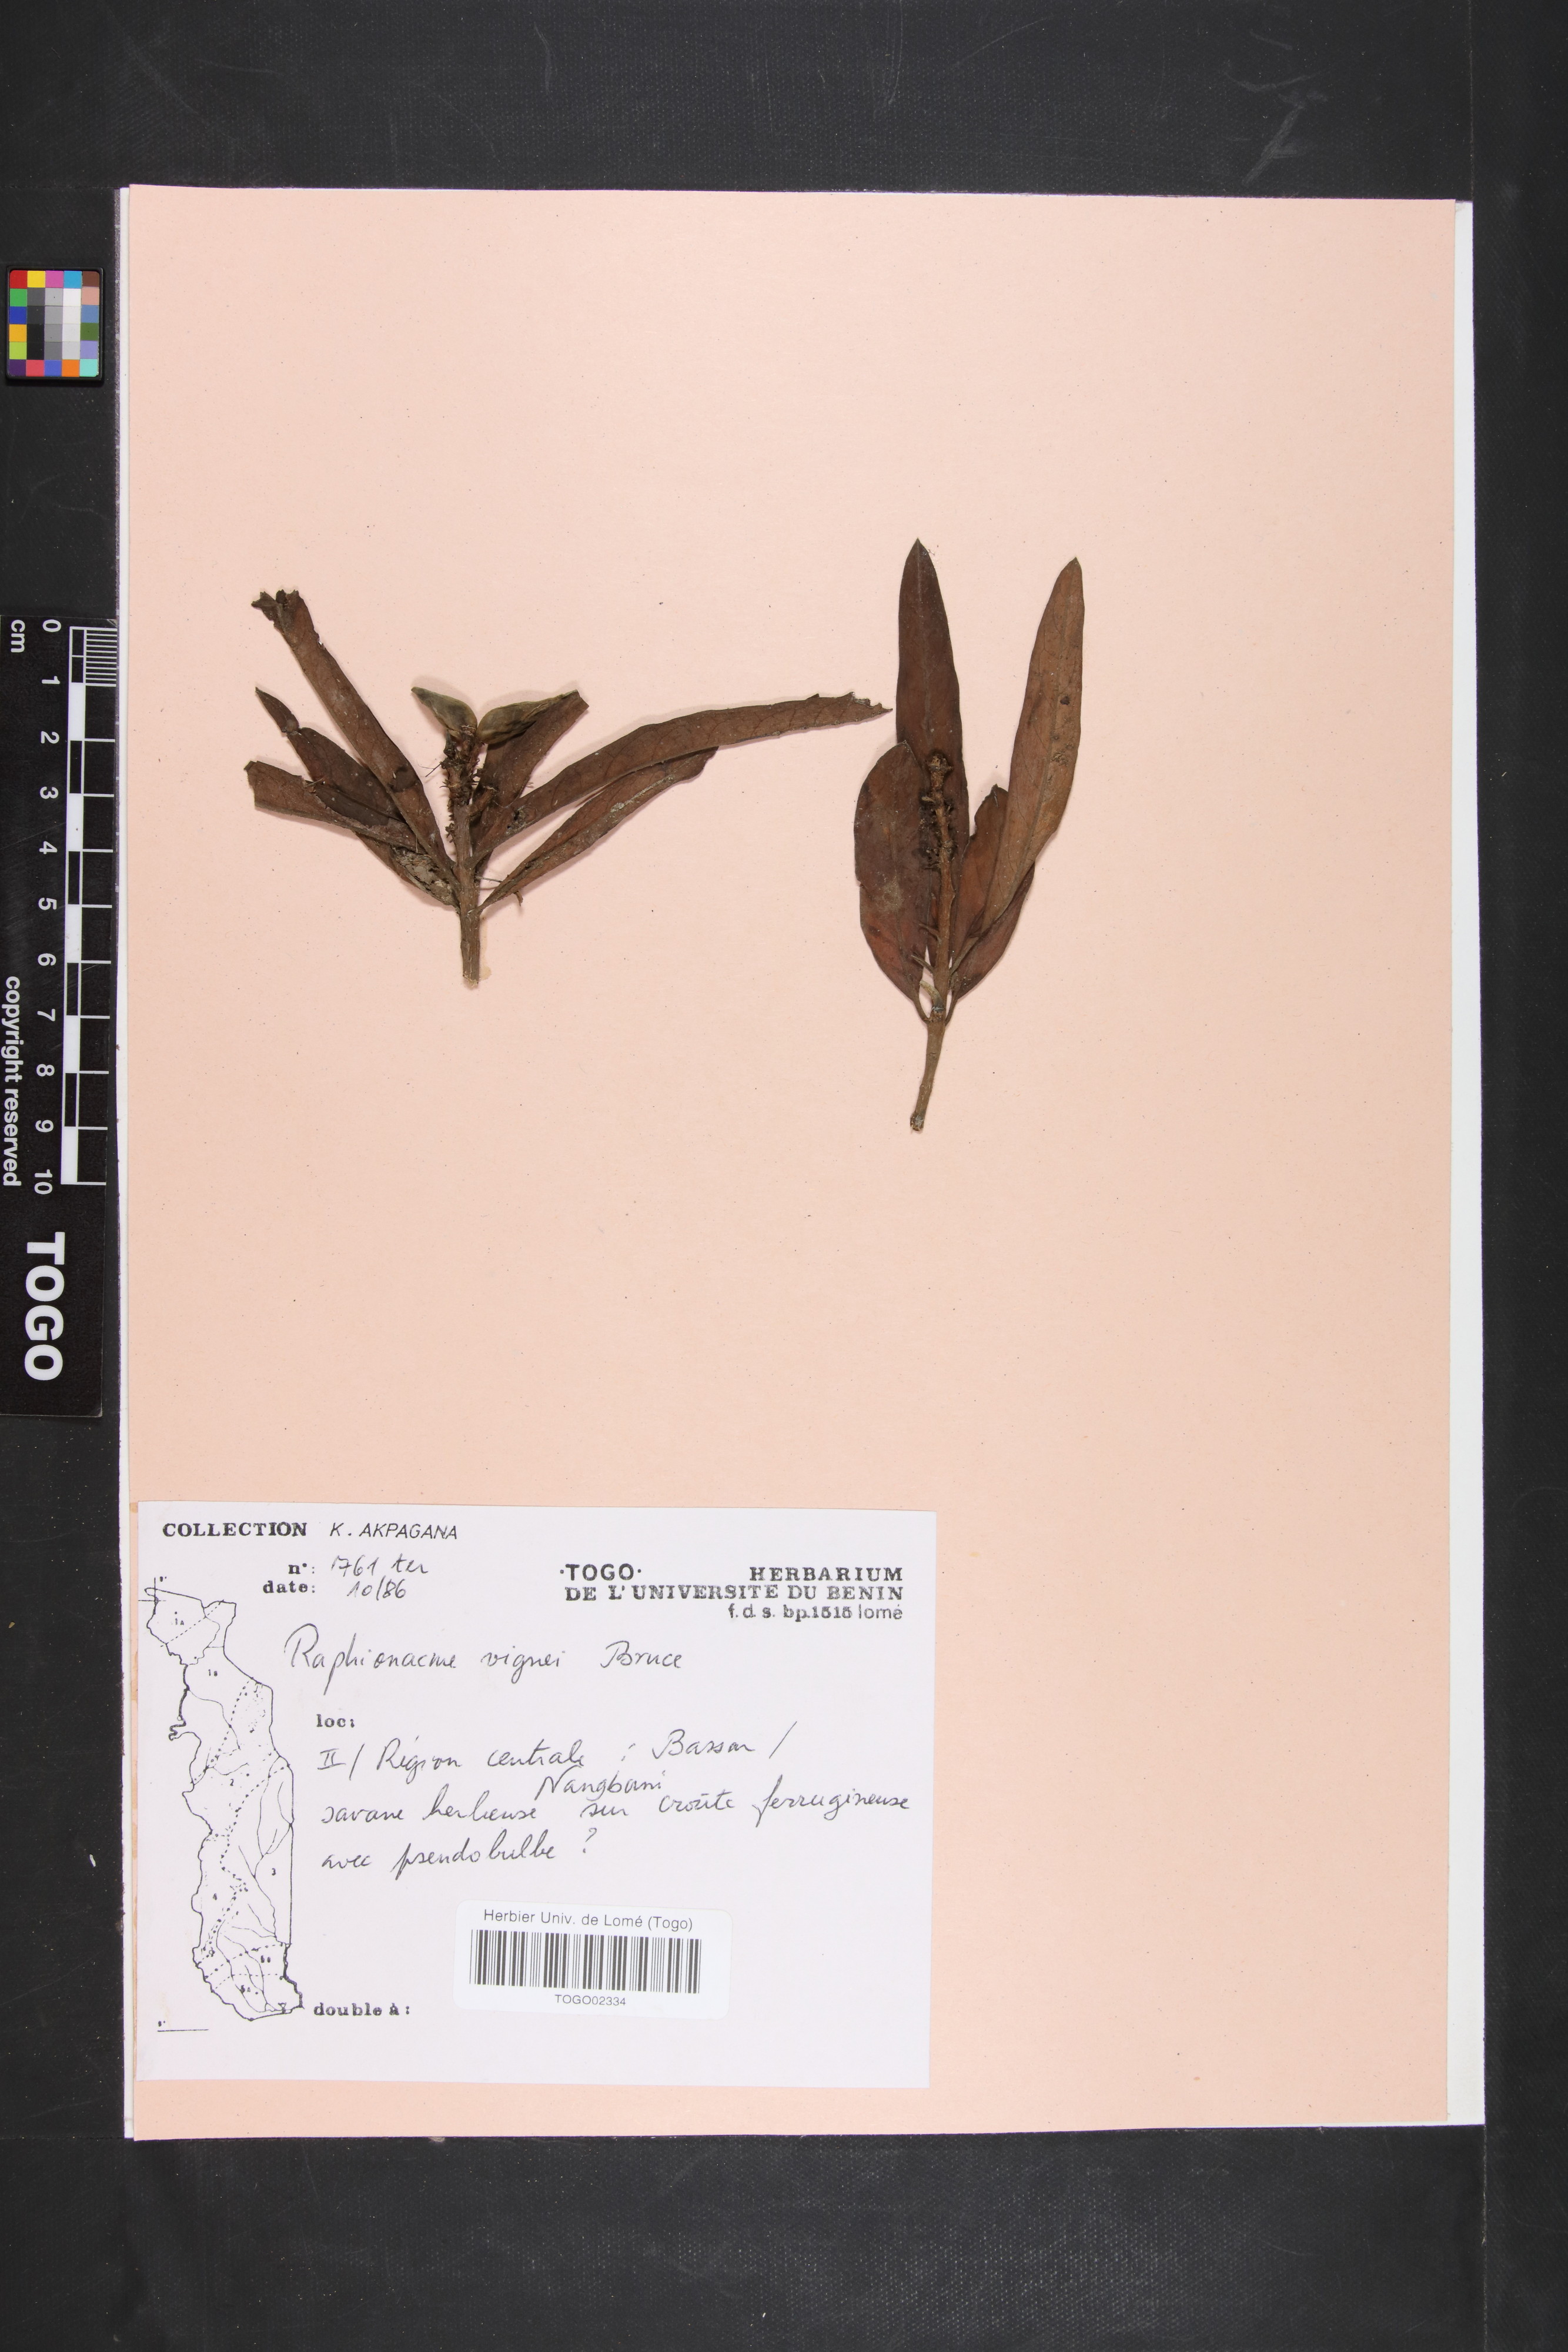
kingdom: Plantae
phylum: Tracheophyta
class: Magnoliopsida
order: Gentianales
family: Apocynaceae
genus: Raphionacme
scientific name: Raphionacme vignei
